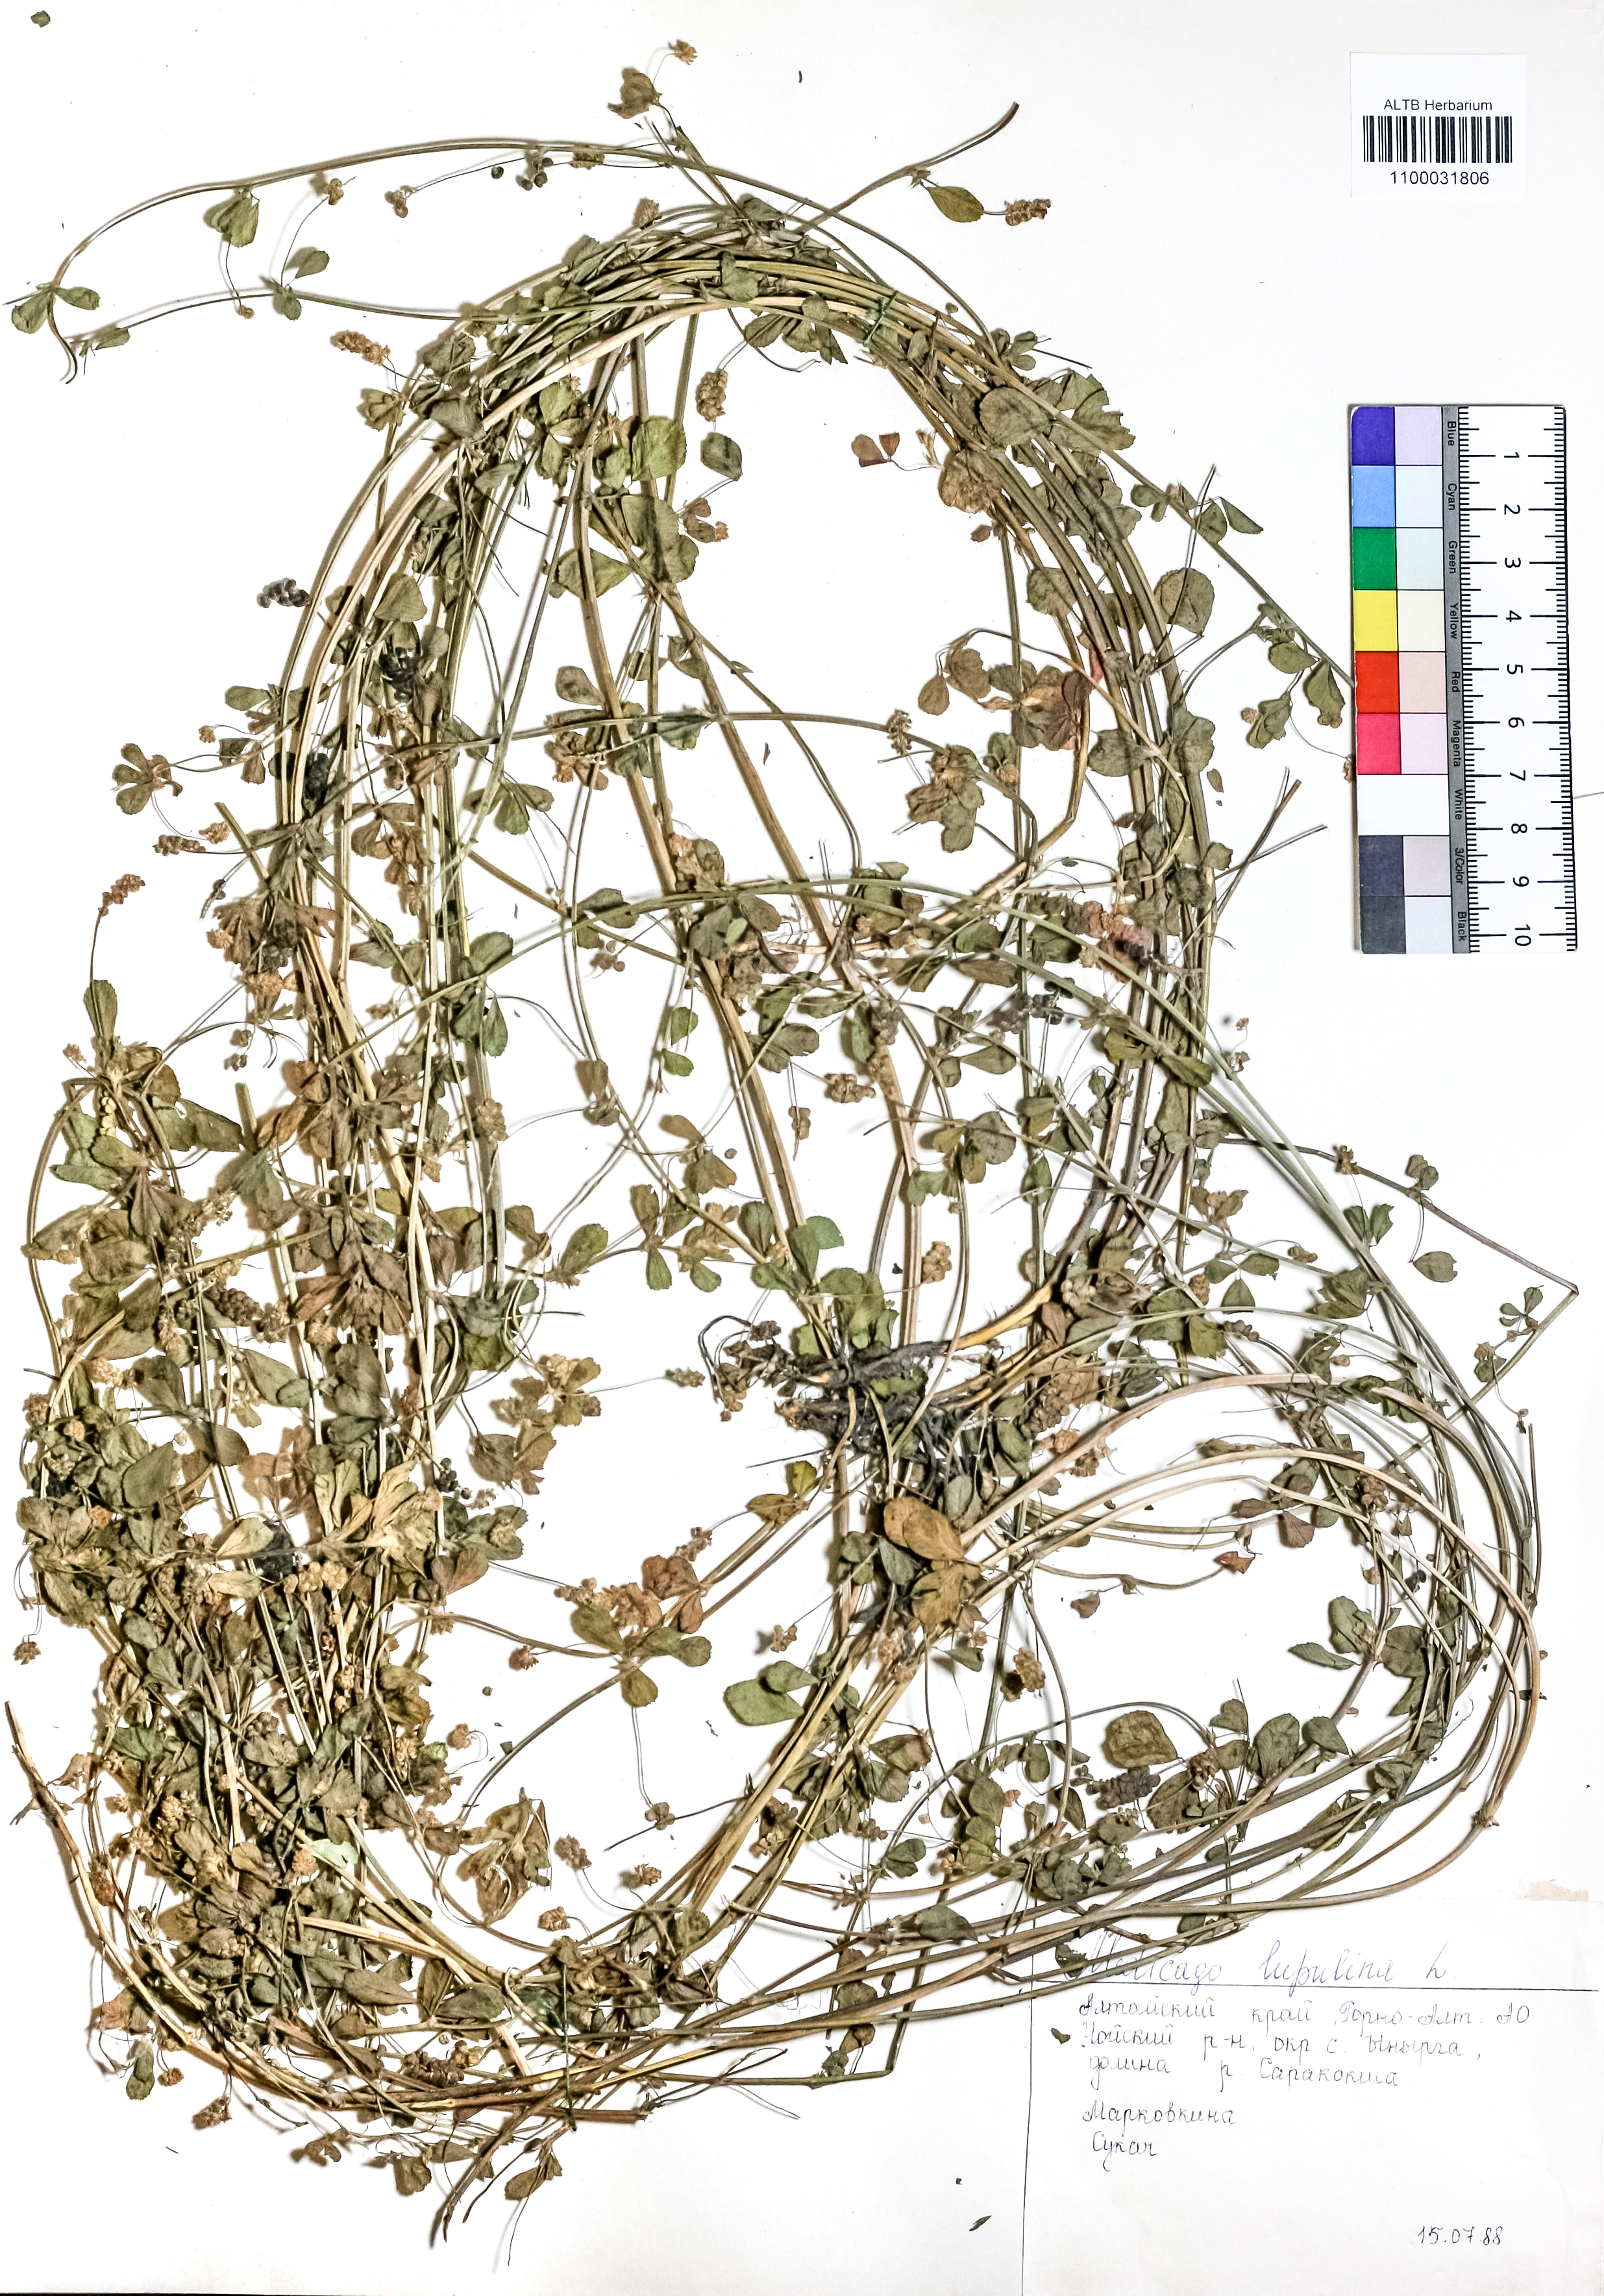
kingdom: Plantae
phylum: Tracheophyta
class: Magnoliopsida
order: Fabales
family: Fabaceae
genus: Medicago
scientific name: Medicago lupulina
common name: Black medick
